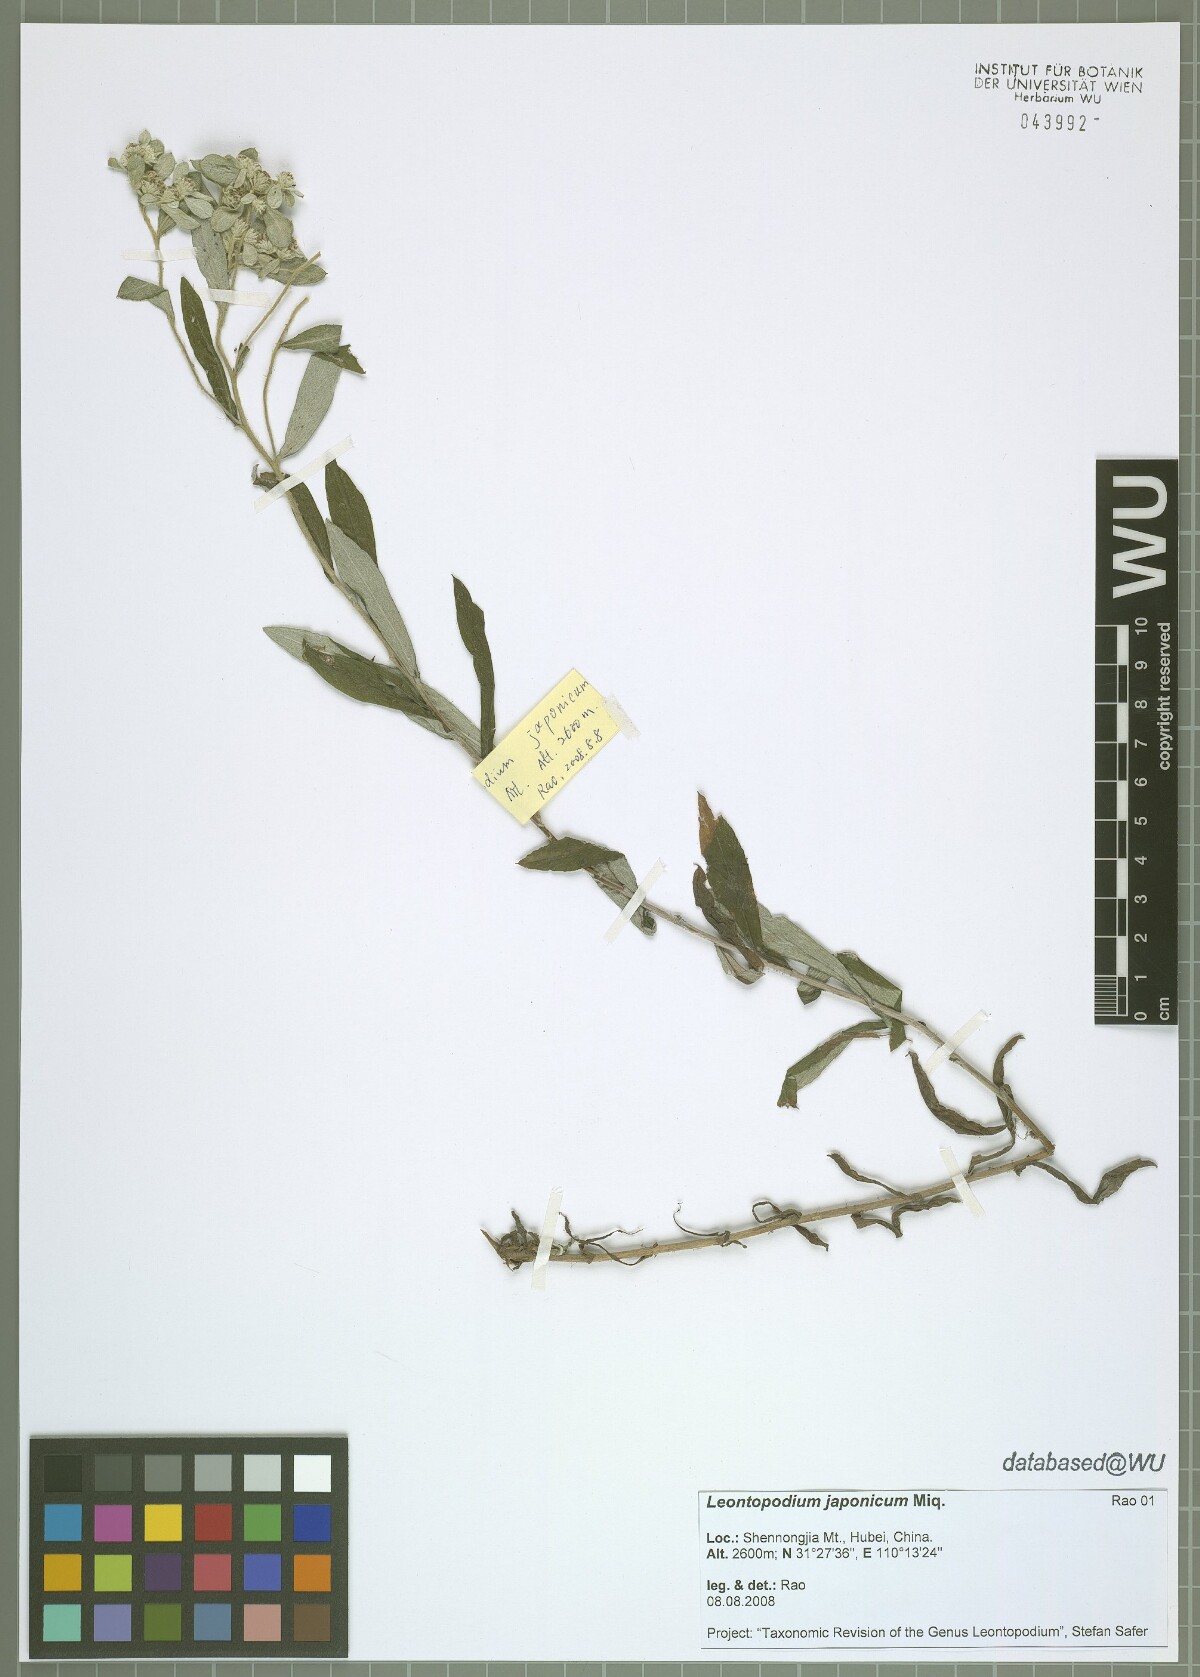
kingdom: Plantae
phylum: Tracheophyta
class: Magnoliopsida
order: Asterales
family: Asteraceae
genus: Leontopodium
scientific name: Leontopodium japonicum
